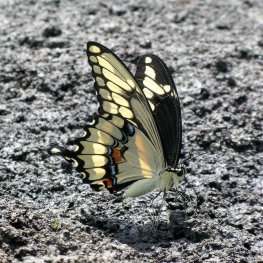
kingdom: Animalia
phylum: Arthropoda
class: Insecta
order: Lepidoptera
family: Papilionidae
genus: Papilio
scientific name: Papilio cresphontes
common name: Eastern Giant Swallowtail
